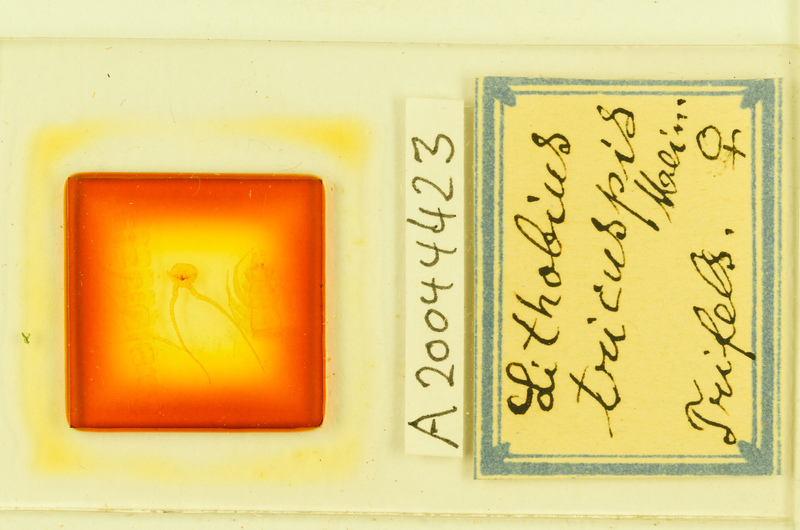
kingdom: Animalia
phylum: Arthropoda
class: Chilopoda
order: Lithobiomorpha
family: Lithobiidae
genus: Lithobius
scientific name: Lithobius tricuspis
